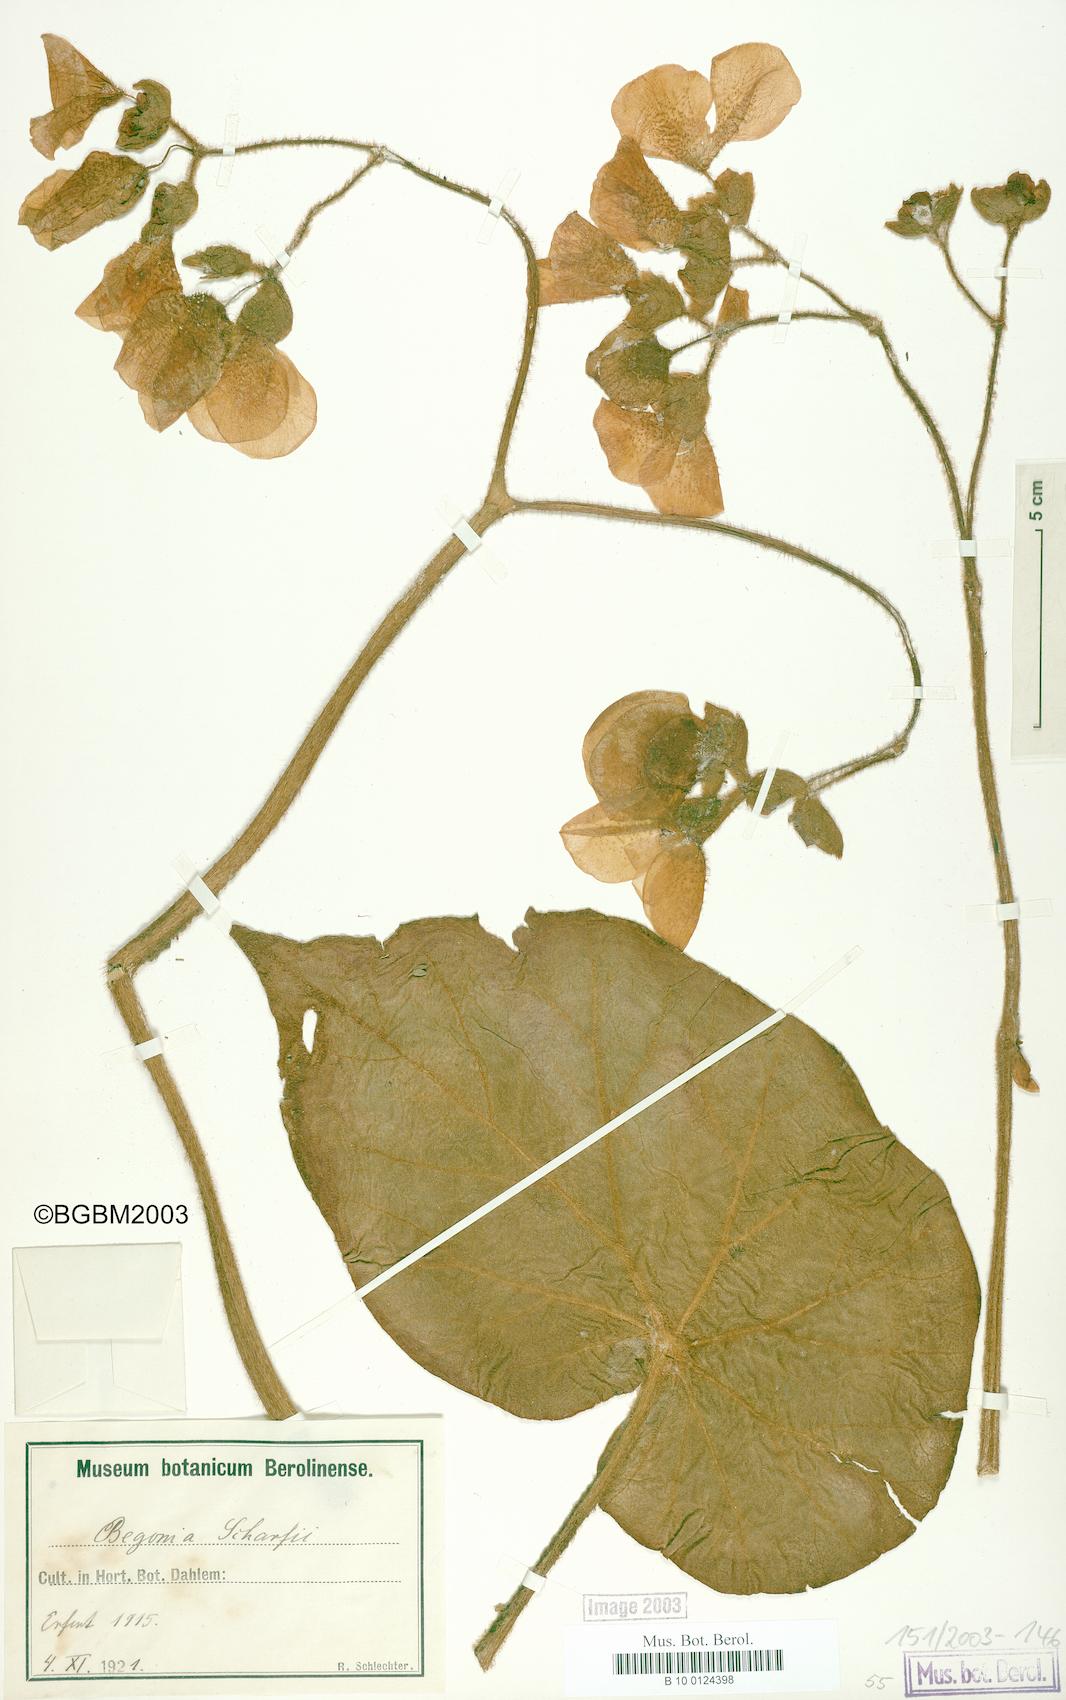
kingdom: Plantae
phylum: Tracheophyta
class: Magnoliopsida
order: Cucurbitales
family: Begoniaceae
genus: Begonia
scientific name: Begonia scharffiana
